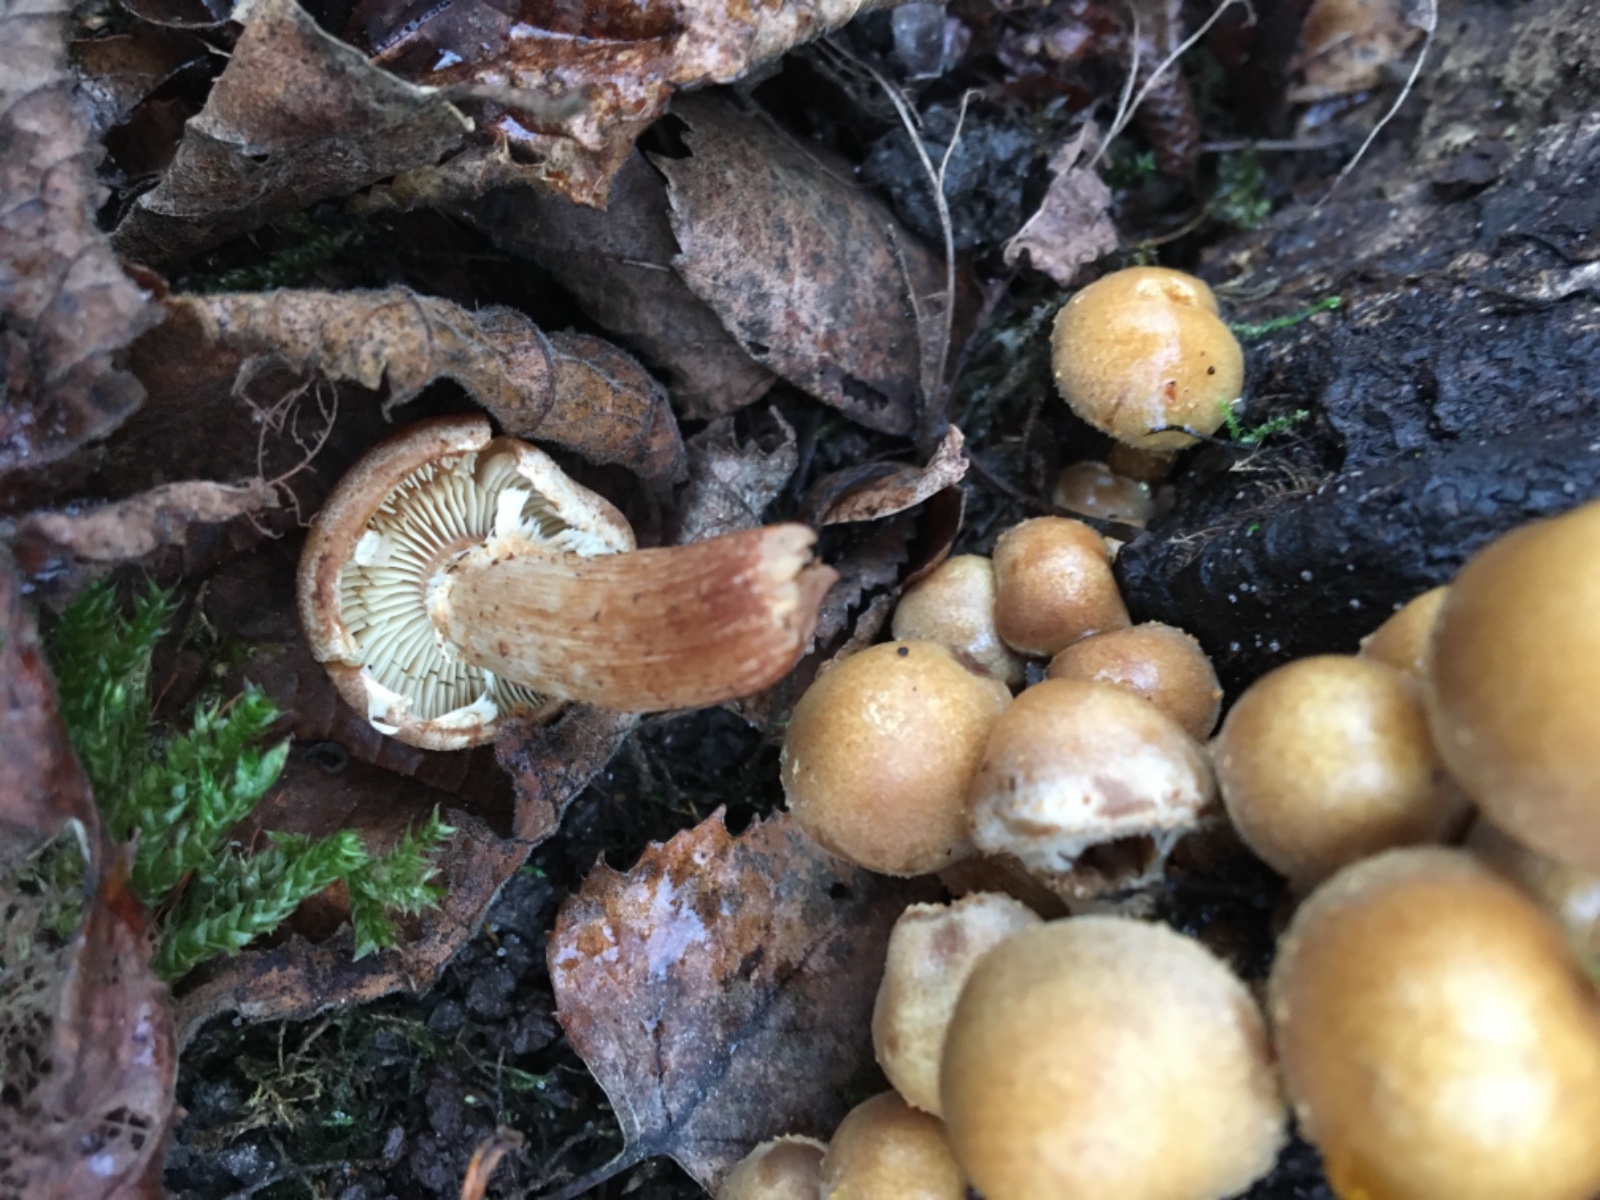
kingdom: Fungi
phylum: Basidiomycota
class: Agaricomycetes
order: Agaricales
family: Strophariaceae
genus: Kuehneromyces
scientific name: Kuehneromyces mutabilis
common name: foranderlig skælhat
